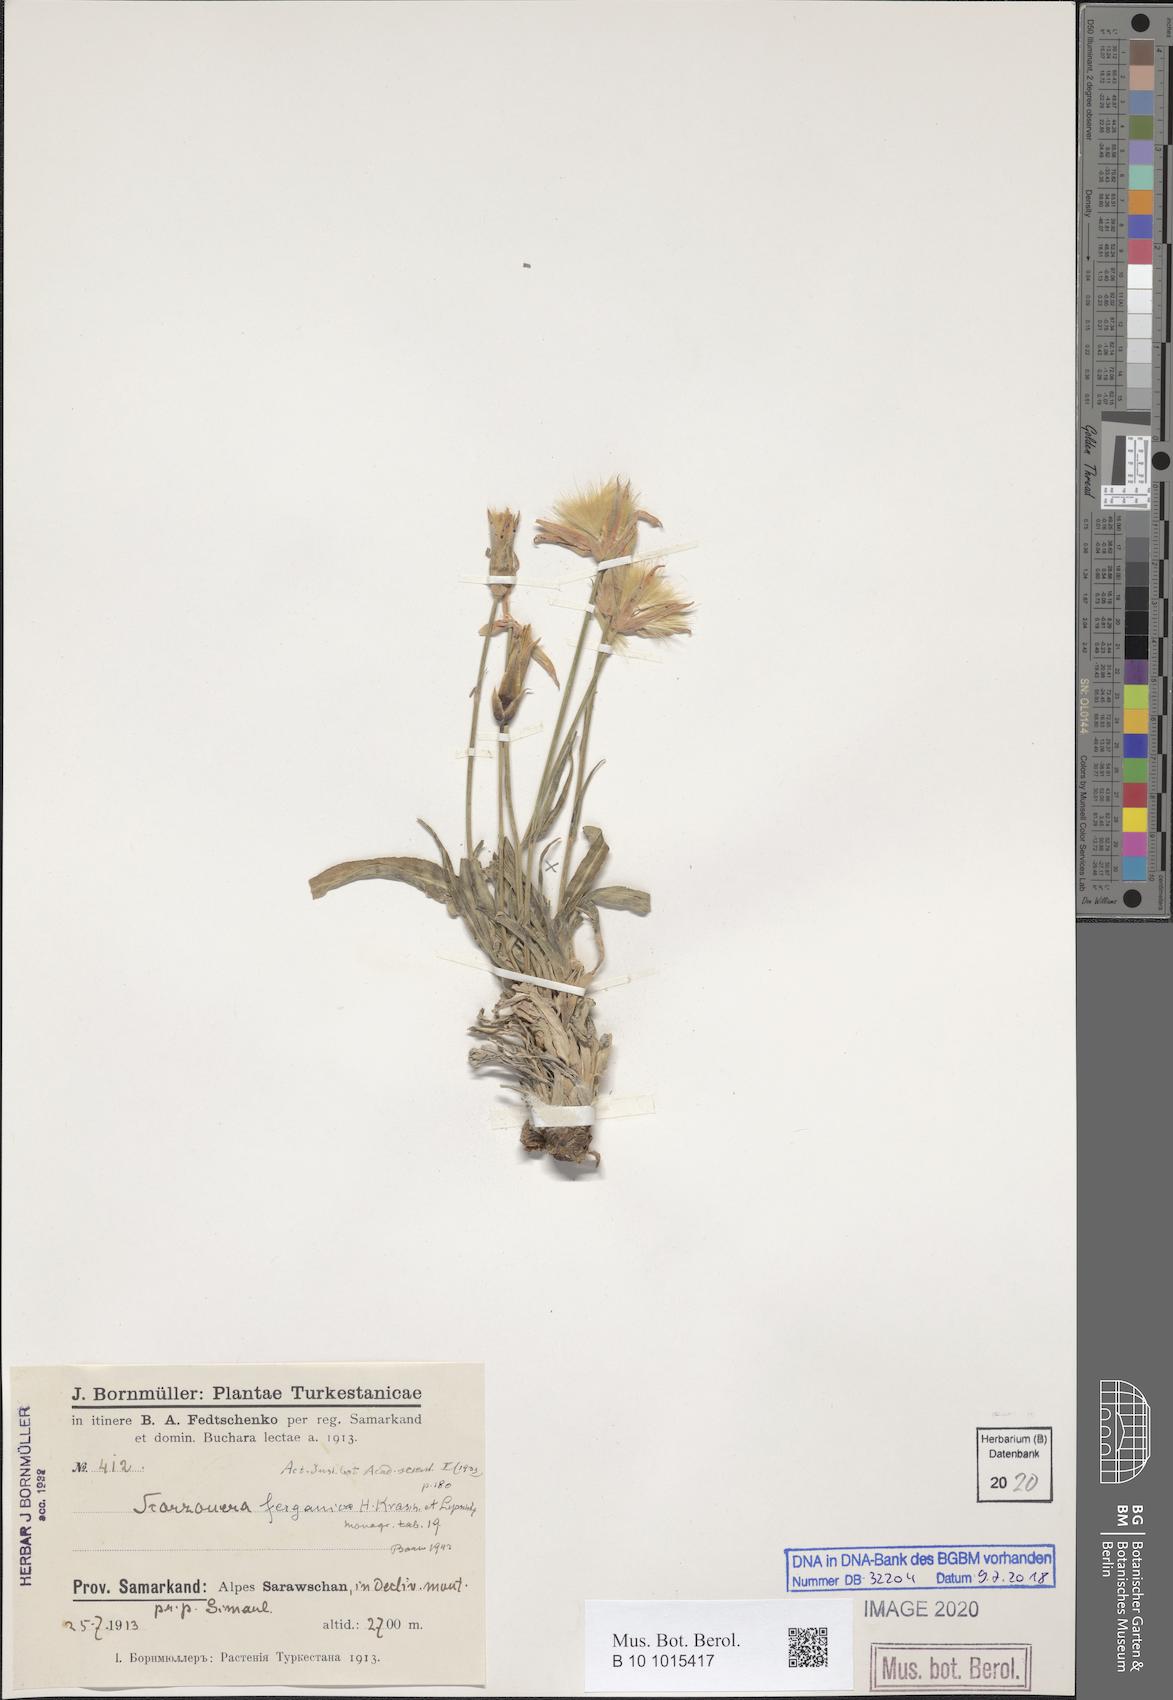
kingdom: Plantae
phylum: Tracheophyta
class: Magnoliopsida
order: Asterales
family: Asteraceae
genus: Scorzonera
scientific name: Scorzonera ferganica
